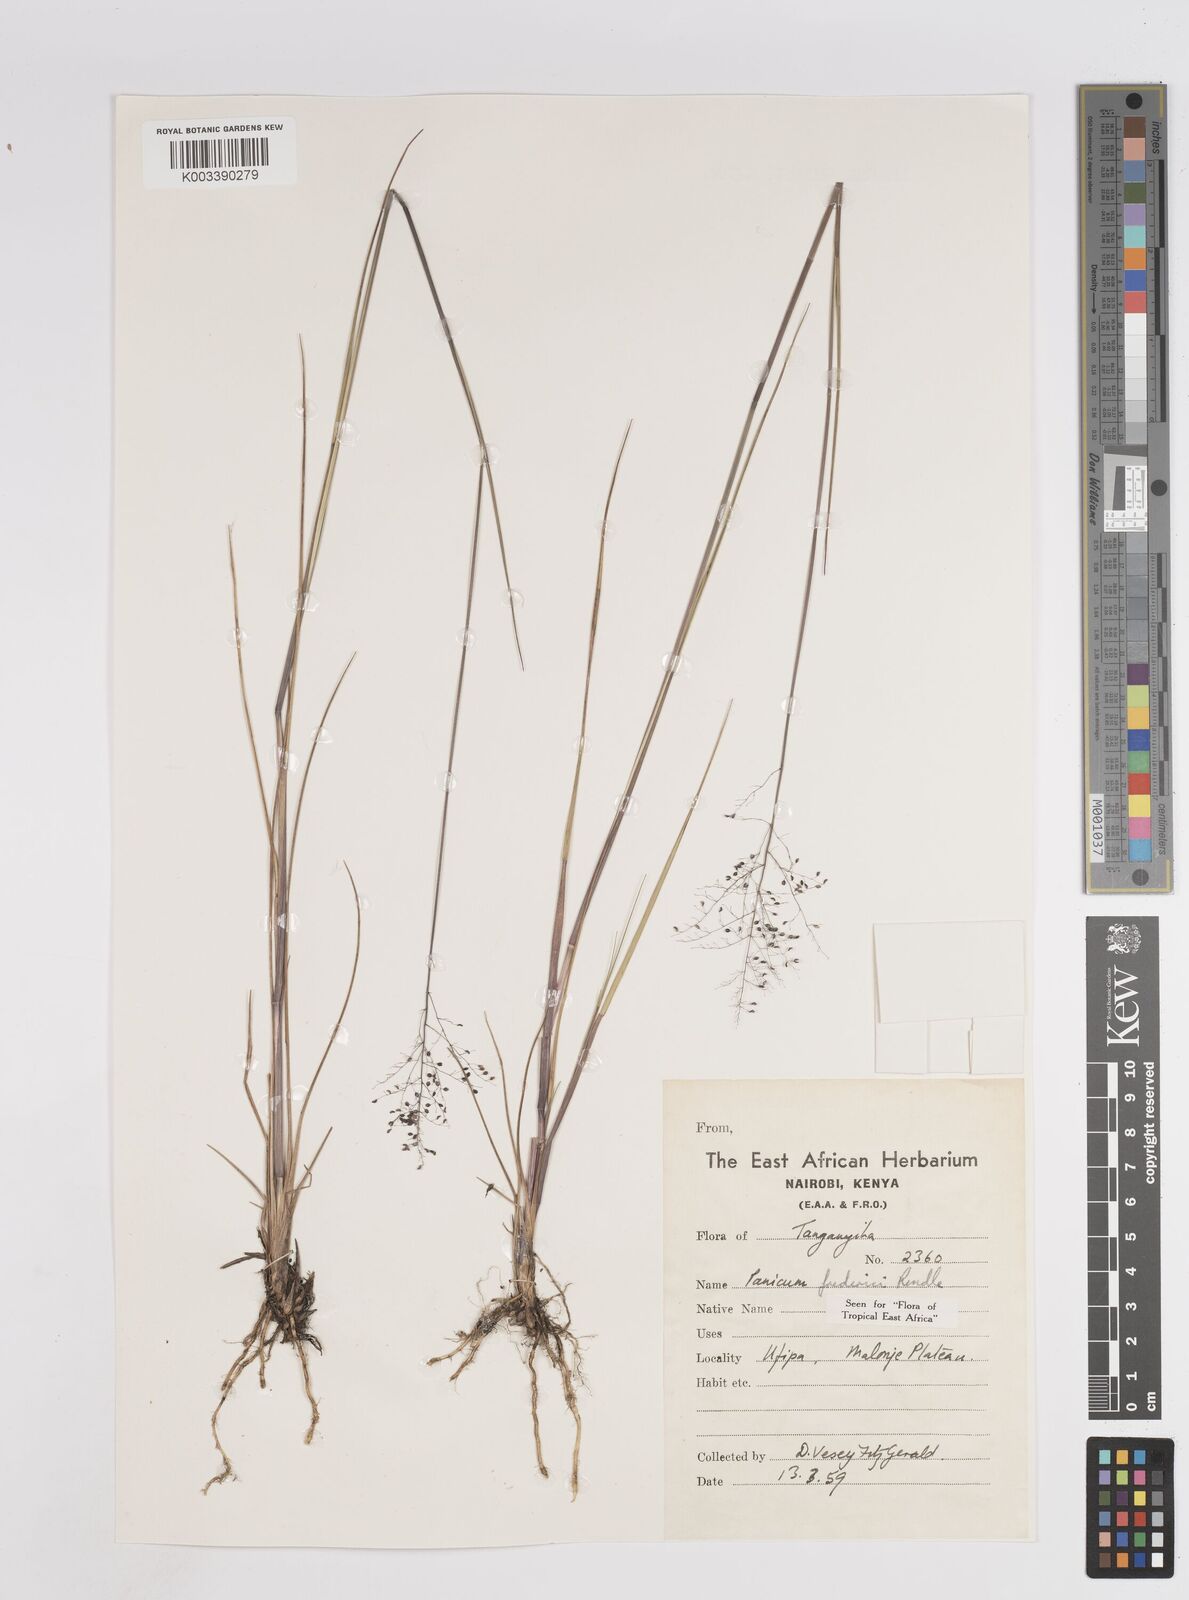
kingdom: Plantae
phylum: Tracheophyta
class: Liliopsida
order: Poales
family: Poaceae
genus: Trichanthecium
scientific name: Trichanthecium brazzavillense
